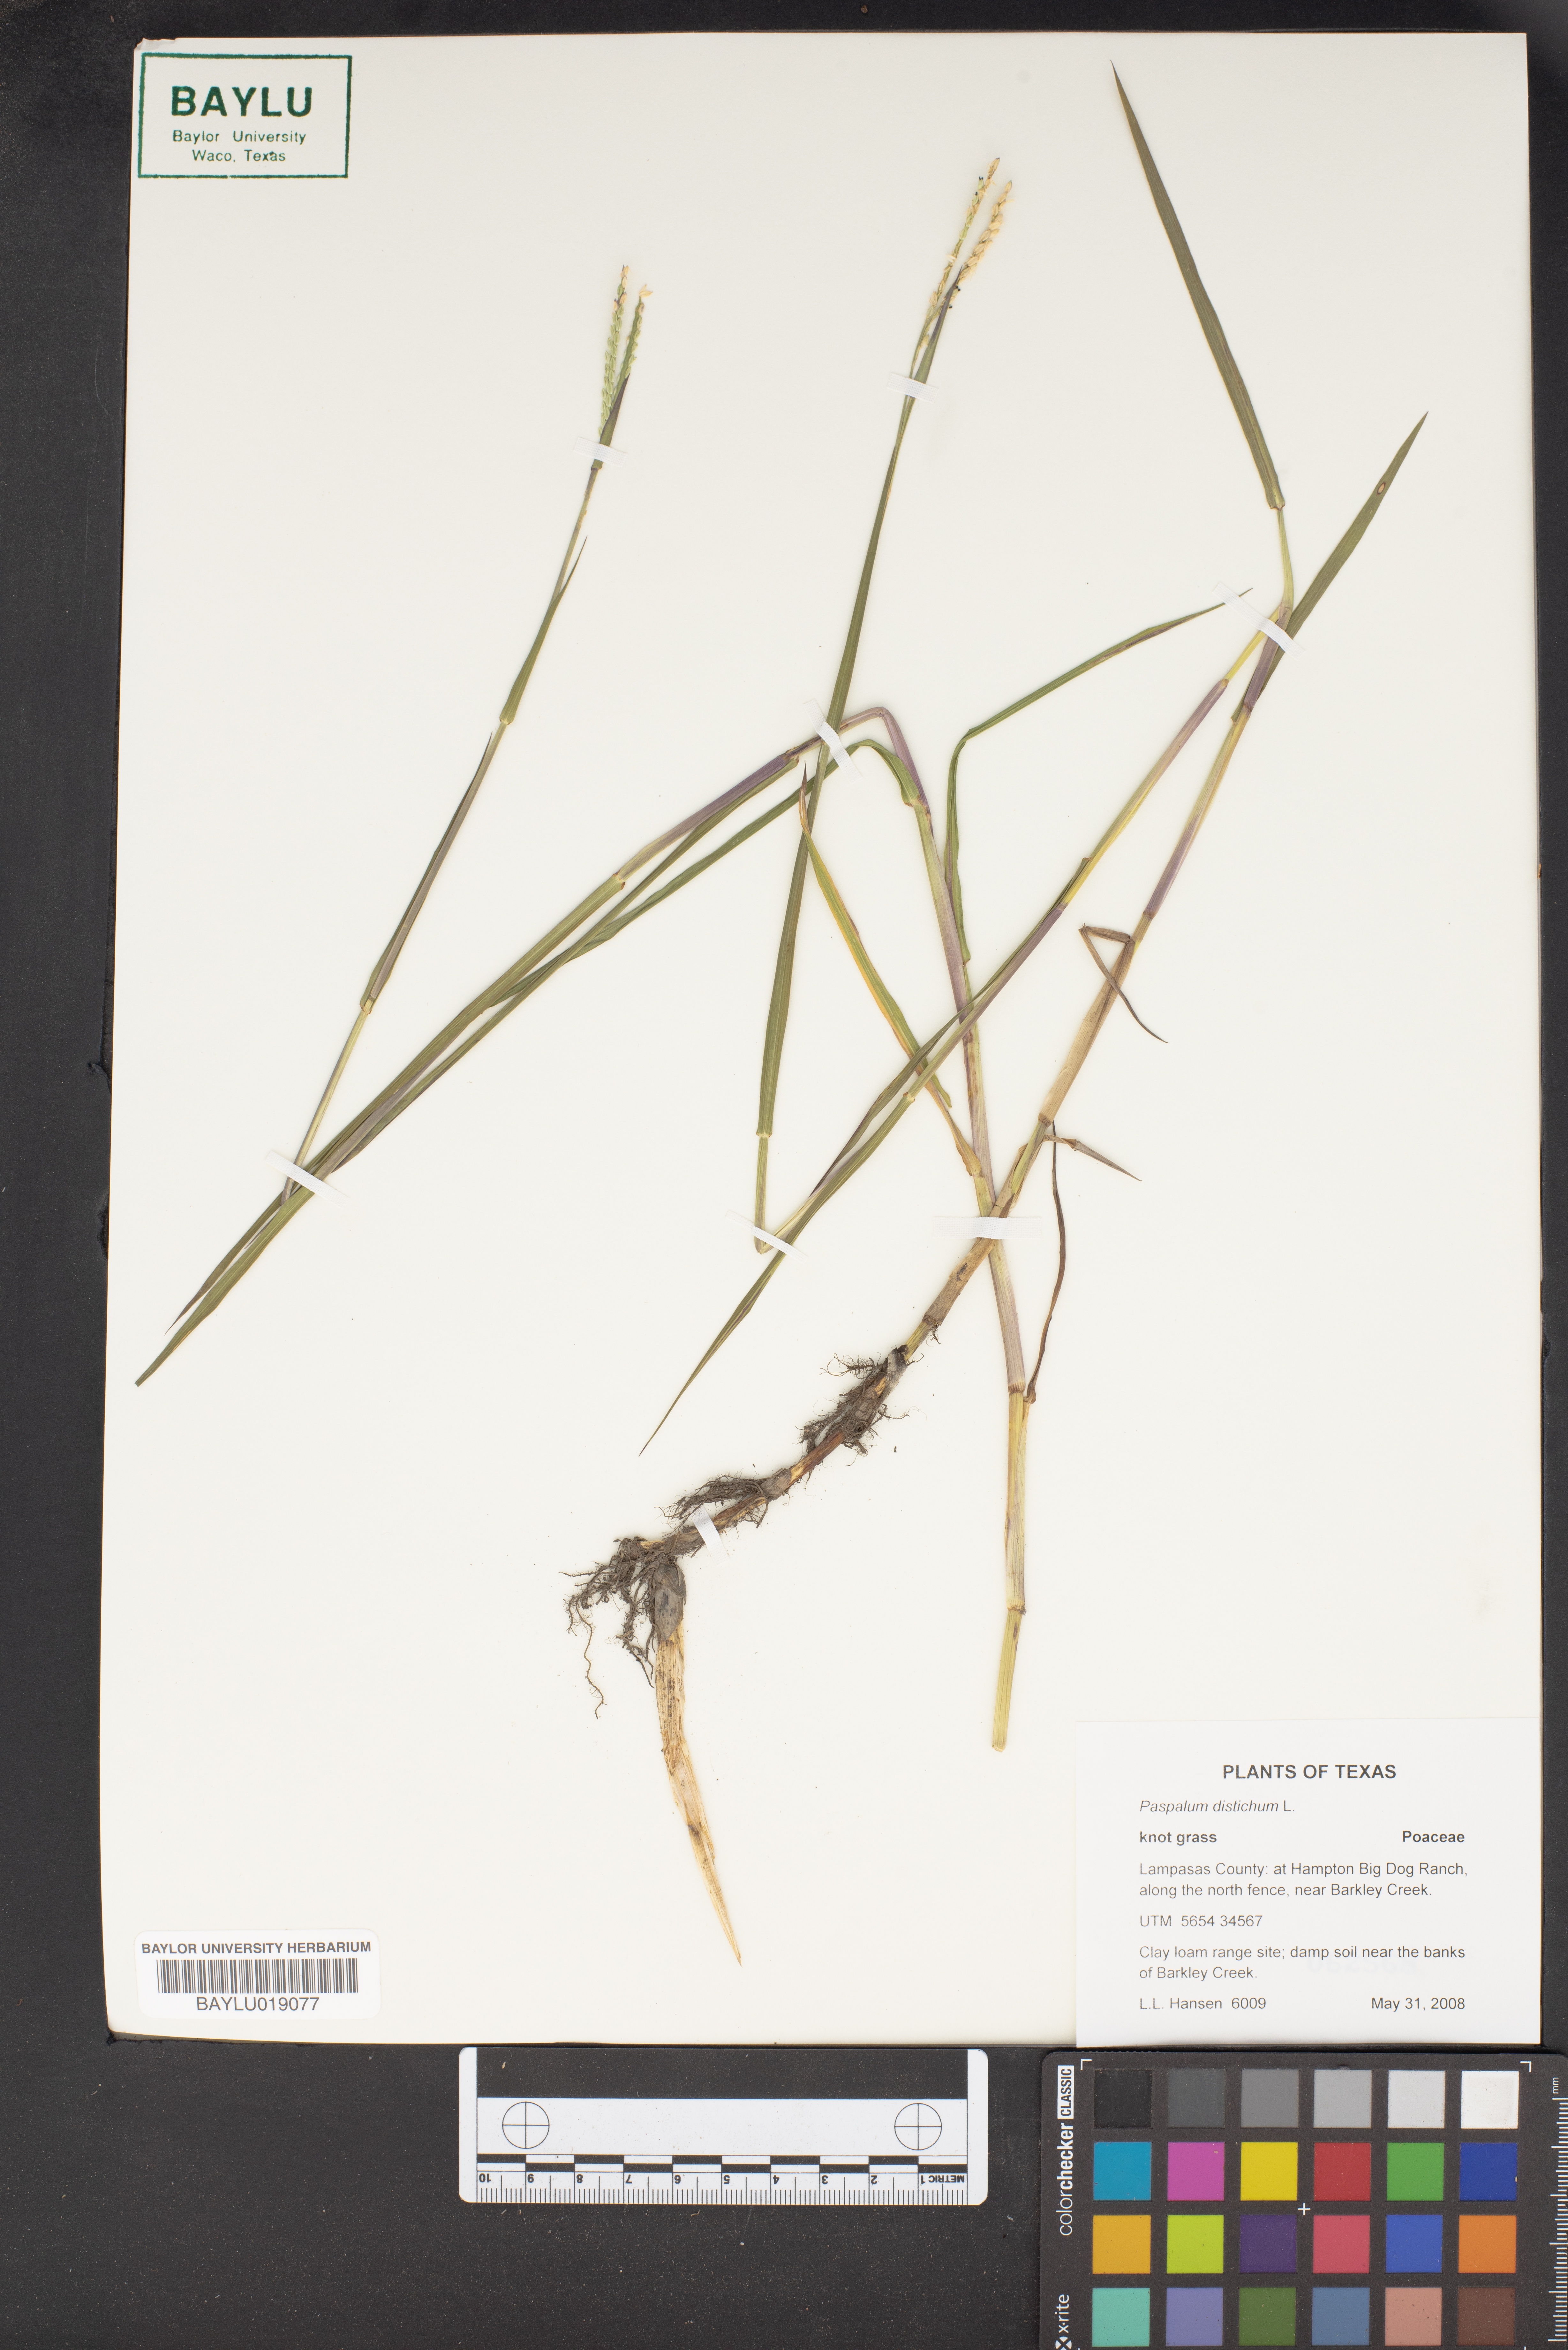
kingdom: Plantae
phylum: Tracheophyta
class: Liliopsida
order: Poales
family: Poaceae
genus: Paspalum
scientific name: Paspalum distichum
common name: Knotgrass
